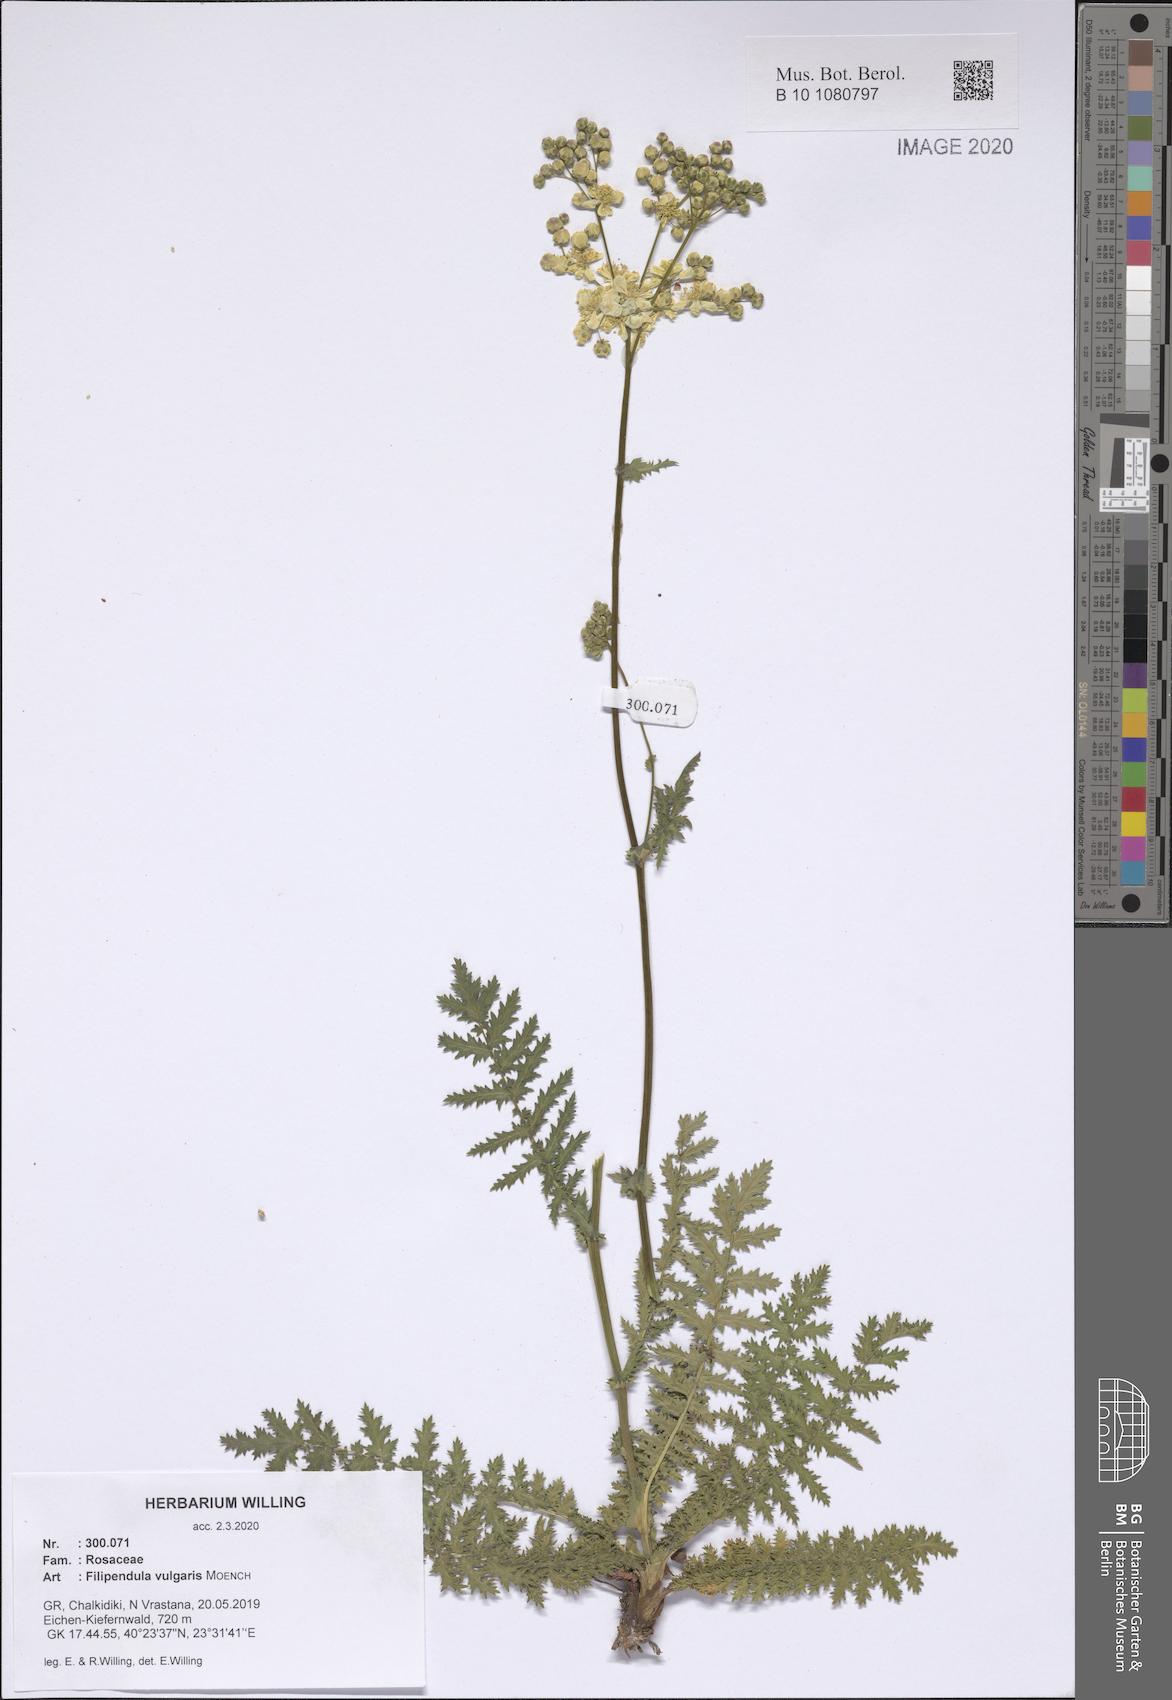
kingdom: Plantae
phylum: Tracheophyta
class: Magnoliopsida
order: Rosales
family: Rosaceae
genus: Filipendula
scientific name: Filipendula vulgaris
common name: Dropwort
